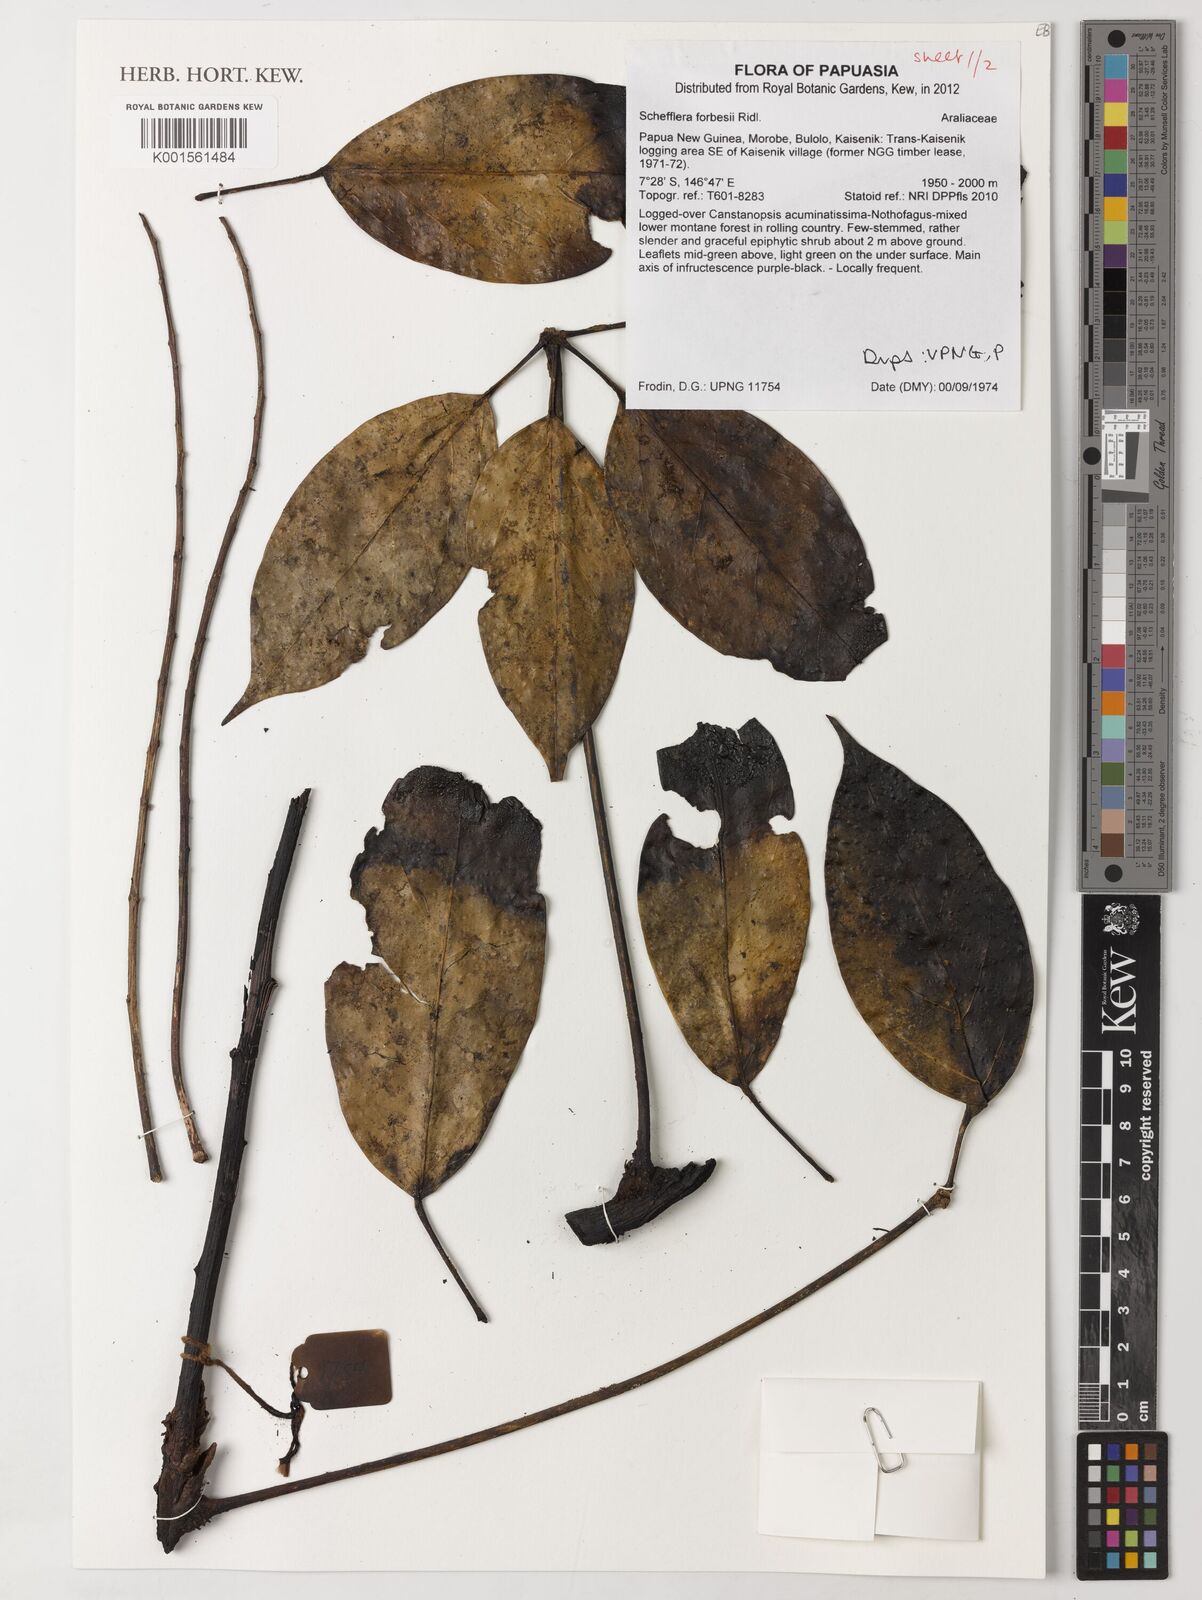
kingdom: Plantae
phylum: Tracheophyta
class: Magnoliopsida
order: Apiales
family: Araliaceae
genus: Heptapleurum
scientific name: Heptapleurum forbesii
